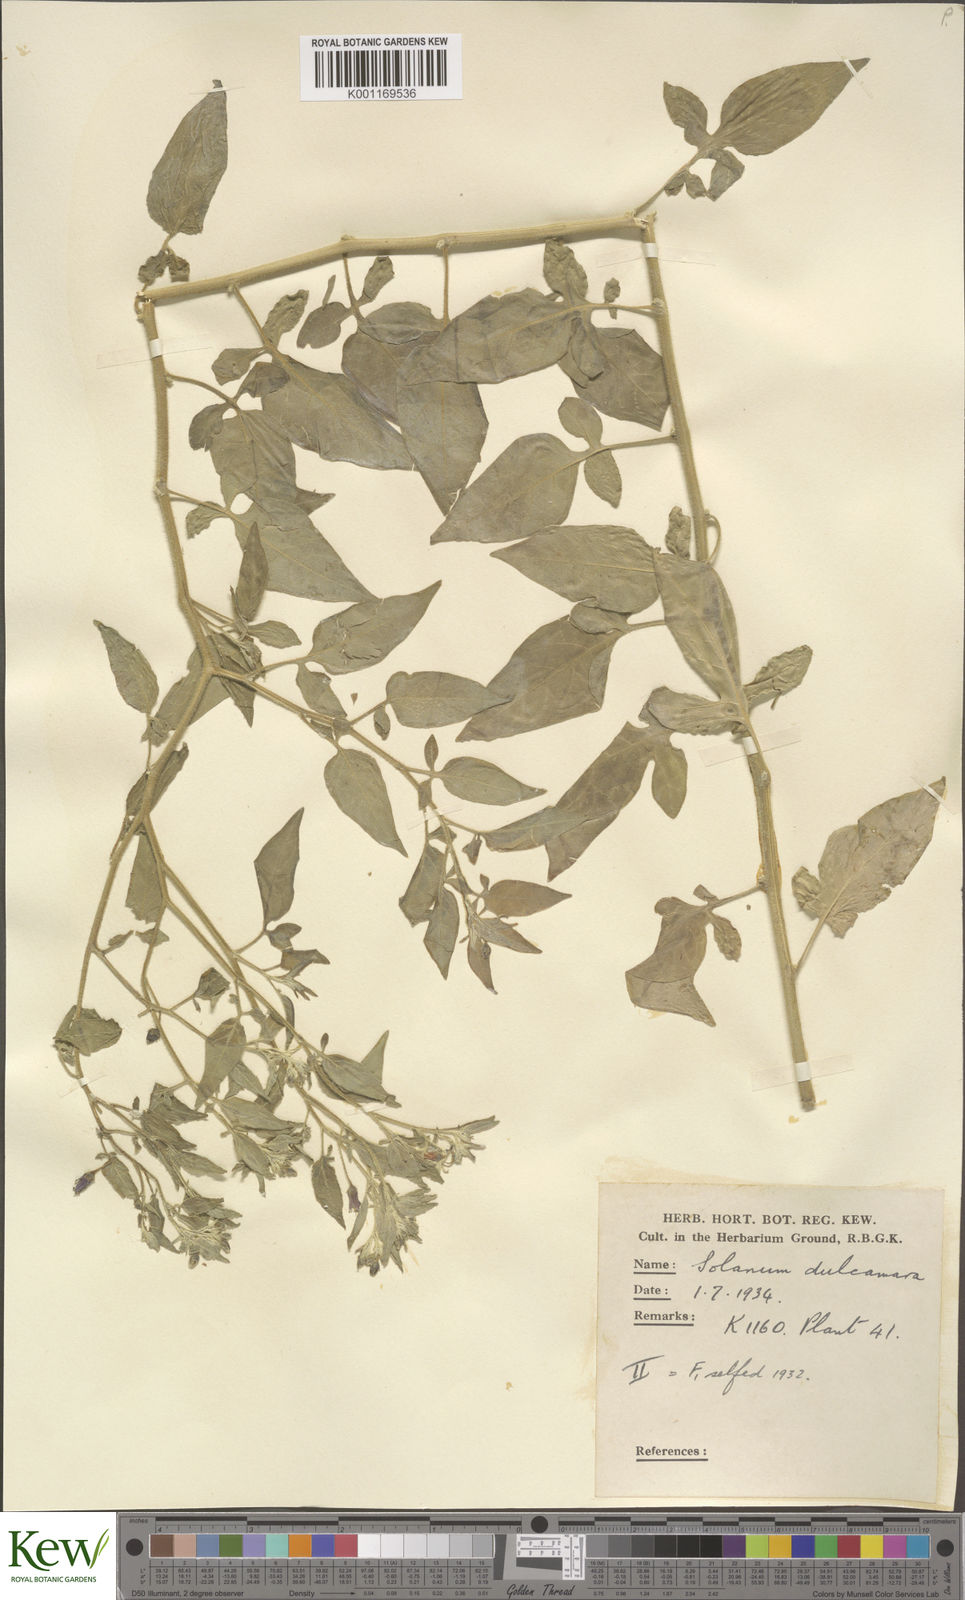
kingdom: Plantae
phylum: Tracheophyta
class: Magnoliopsida
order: Solanales
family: Solanaceae
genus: Solanum
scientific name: Solanum dulcamara
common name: Climbing nightshade
